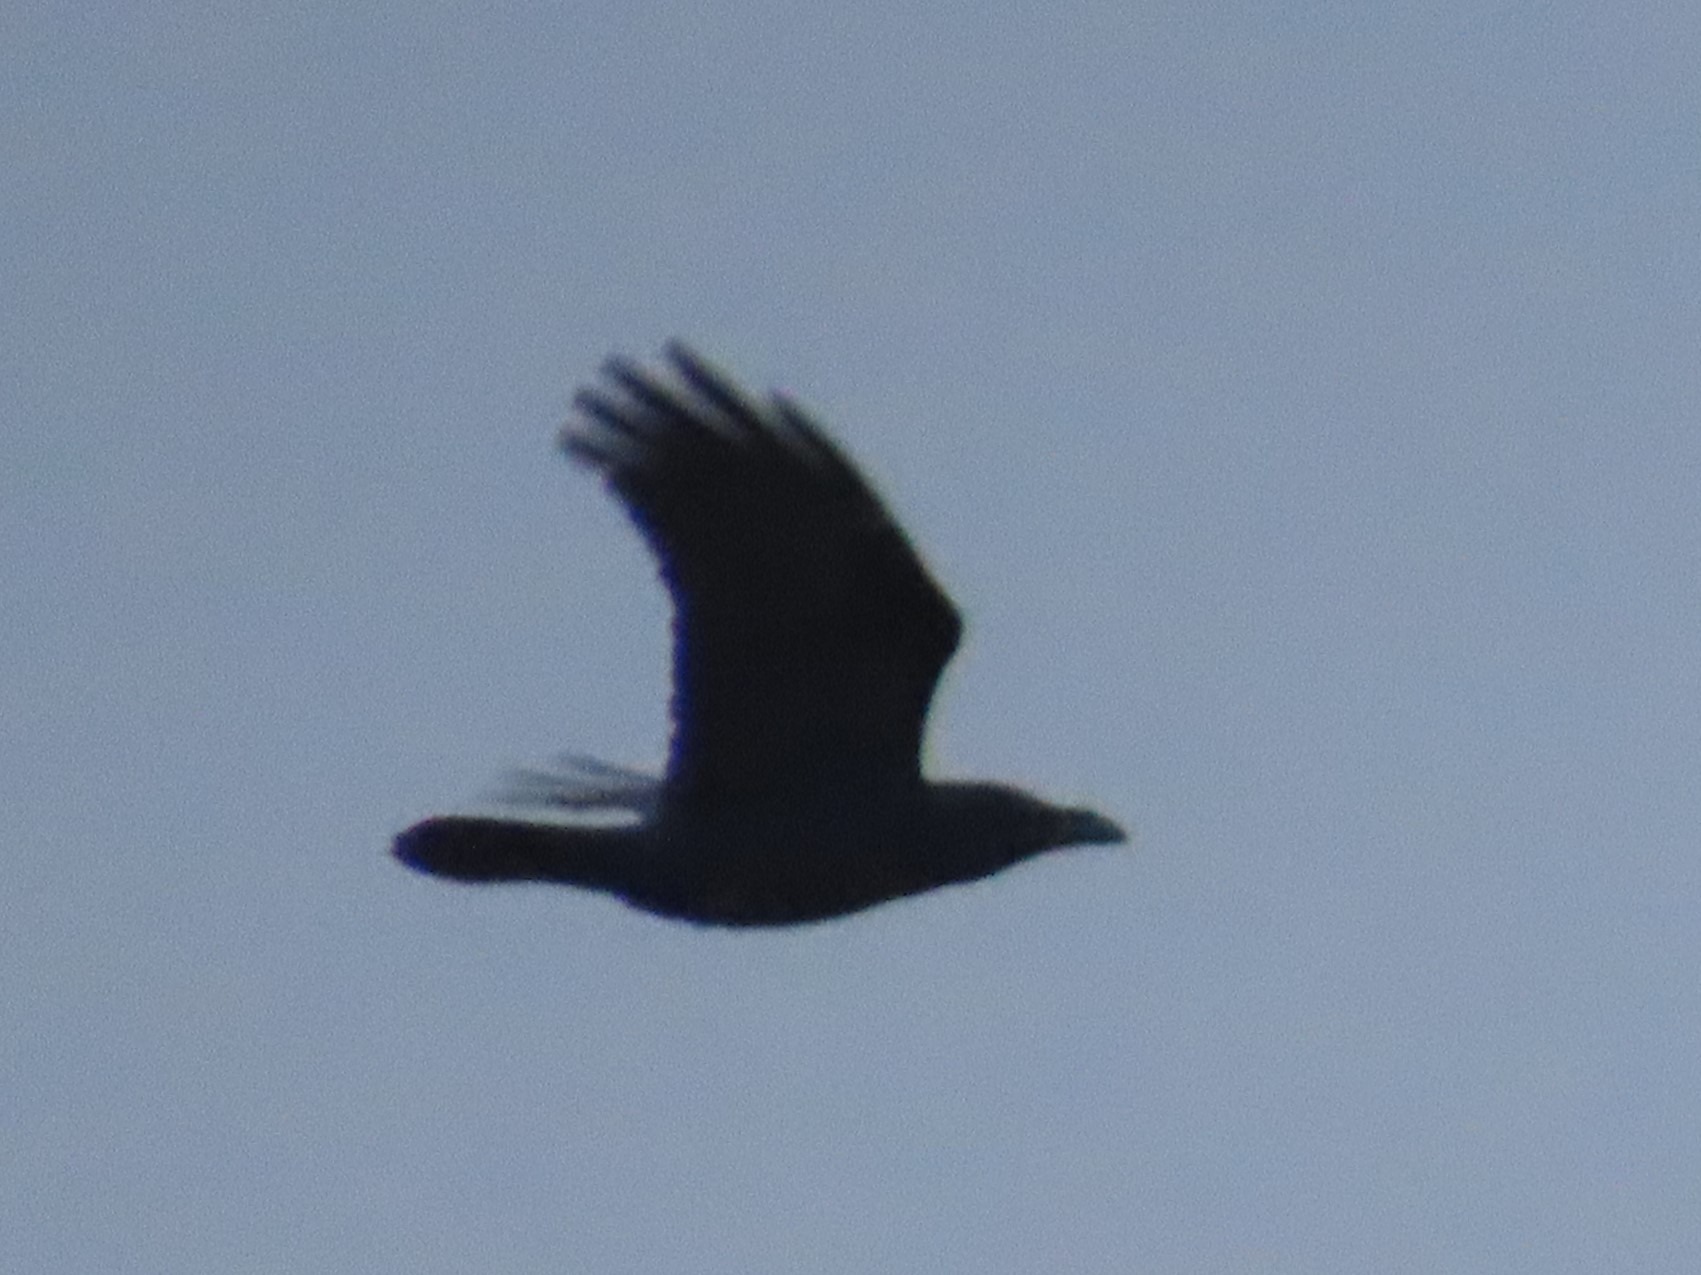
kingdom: Animalia
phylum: Chordata
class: Aves
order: Passeriformes
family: Corvidae
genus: Corvus
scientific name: Corvus corax
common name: Ravn
